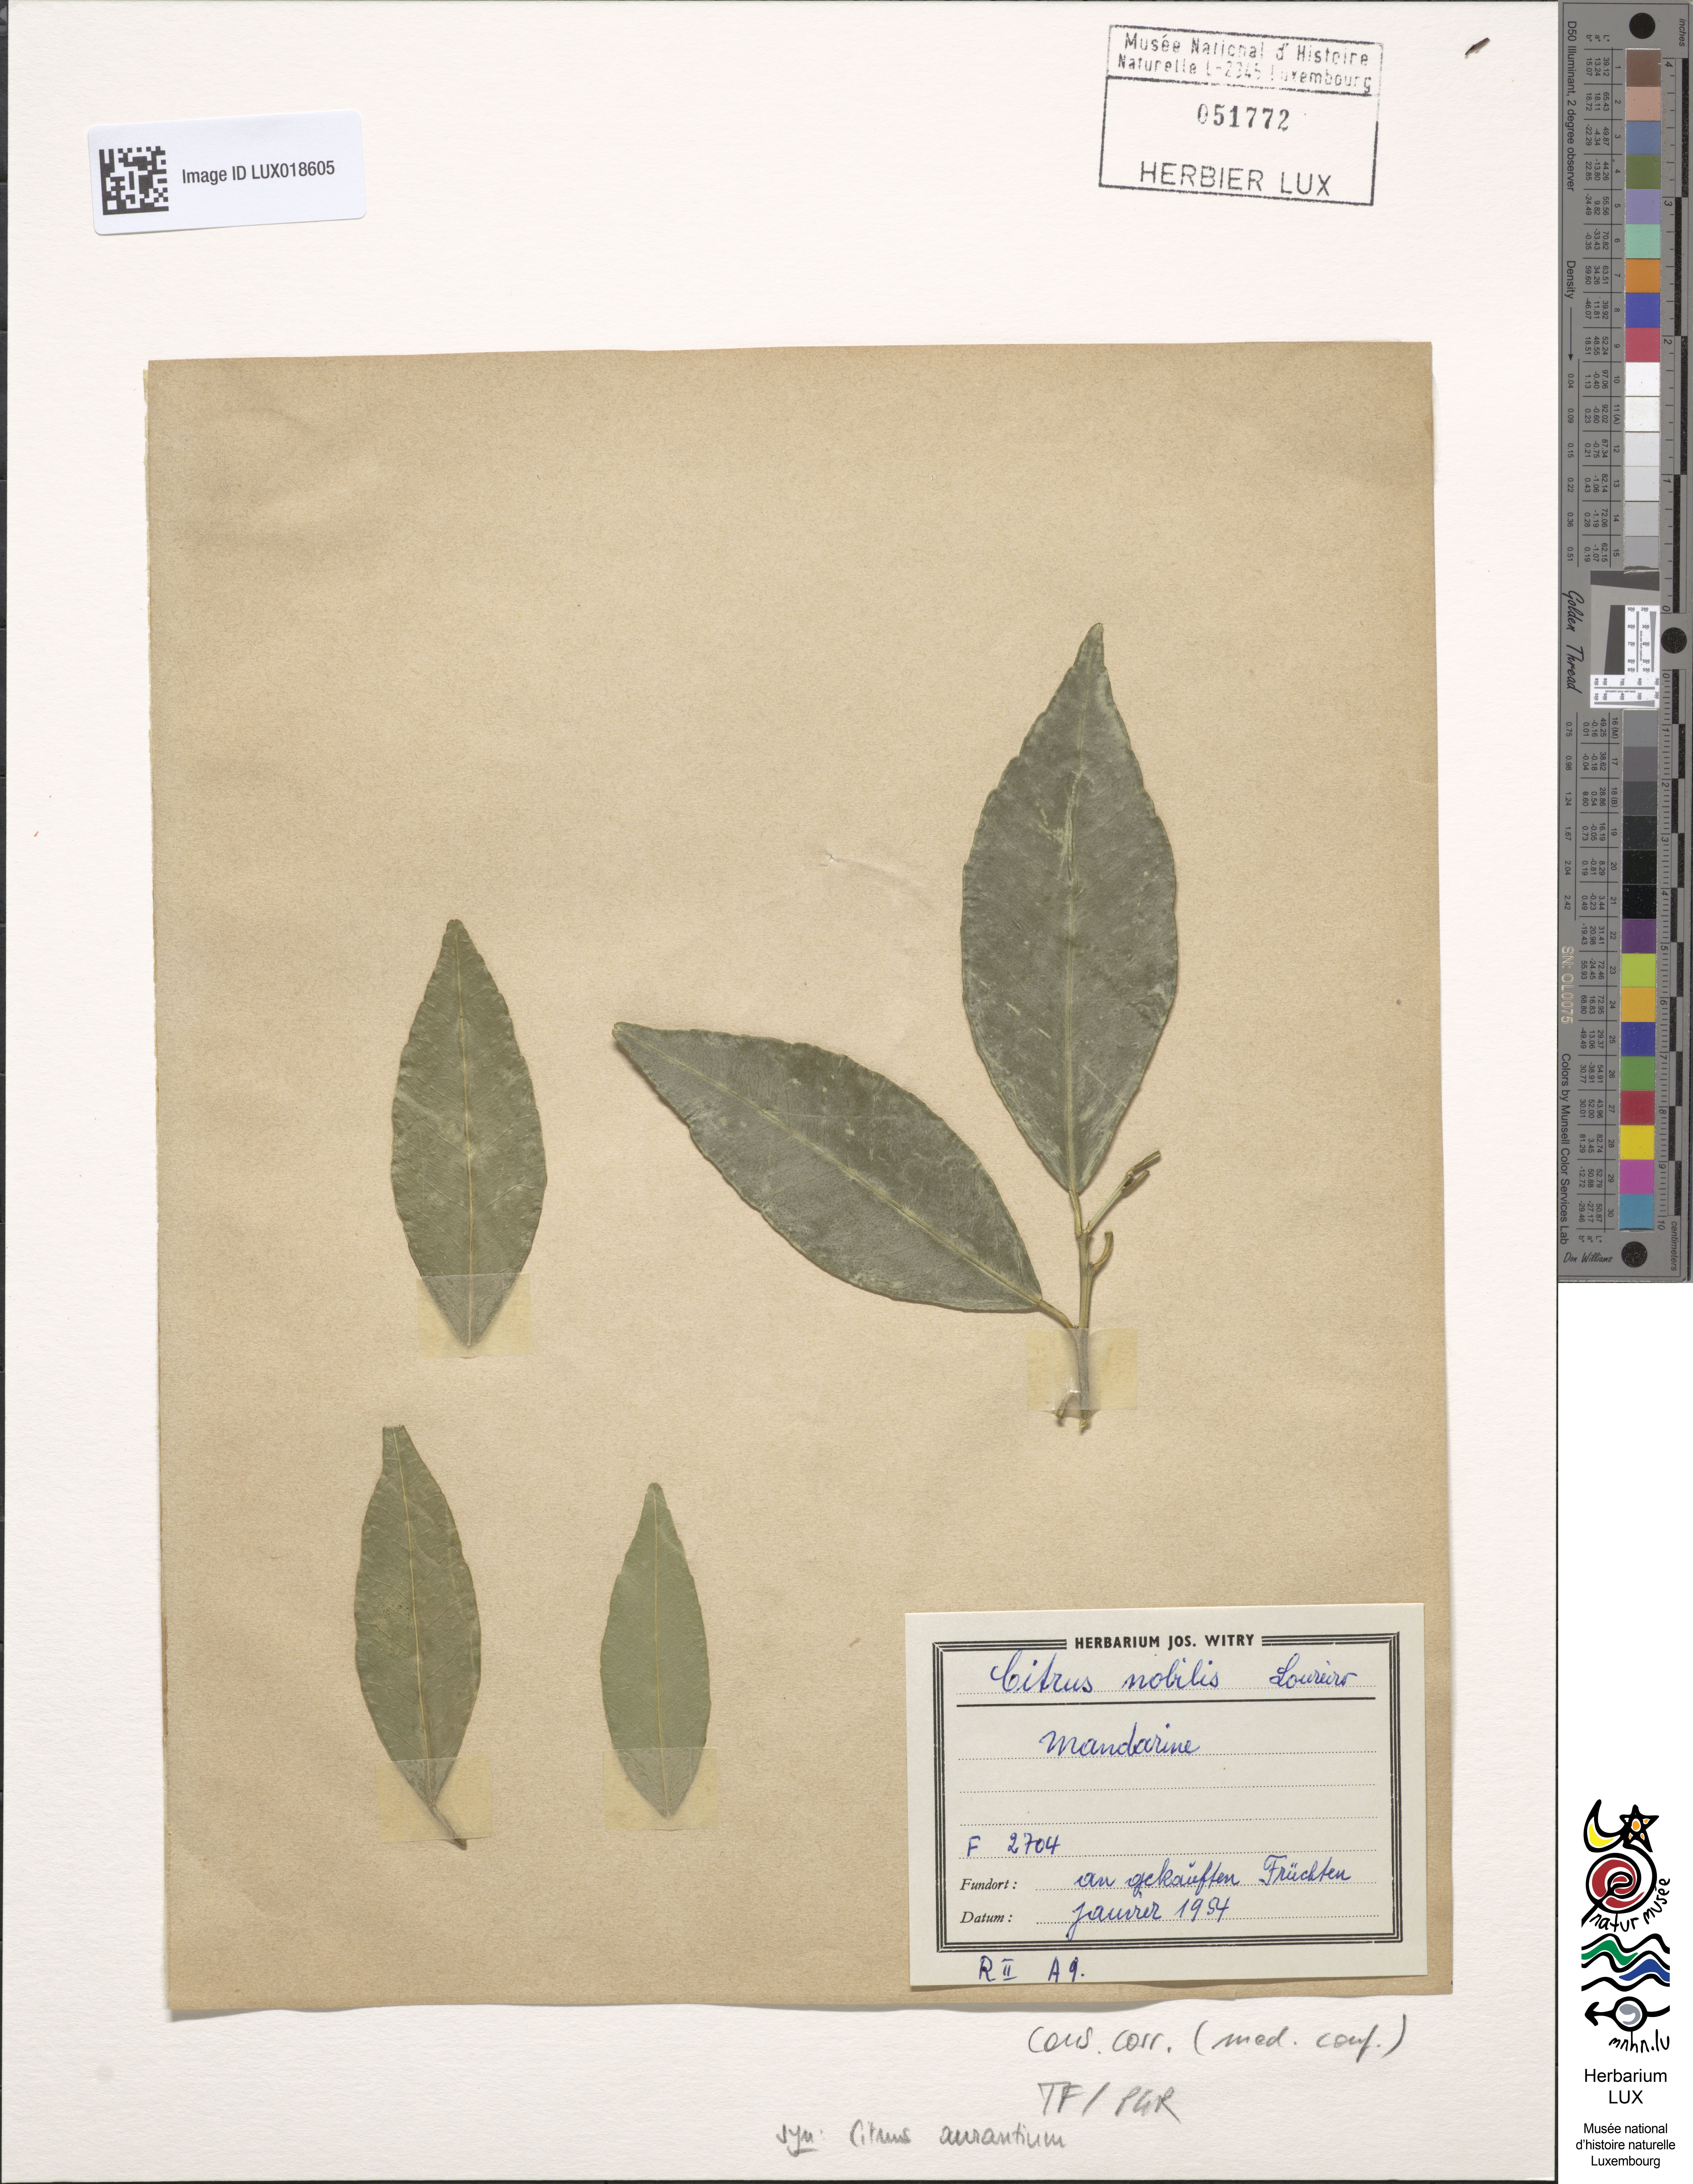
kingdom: Plantae
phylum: Tracheophyta
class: Magnoliopsida
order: Sapindales
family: Rutaceae
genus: Citrus
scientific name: Citrus aurantium
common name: Sour orange
